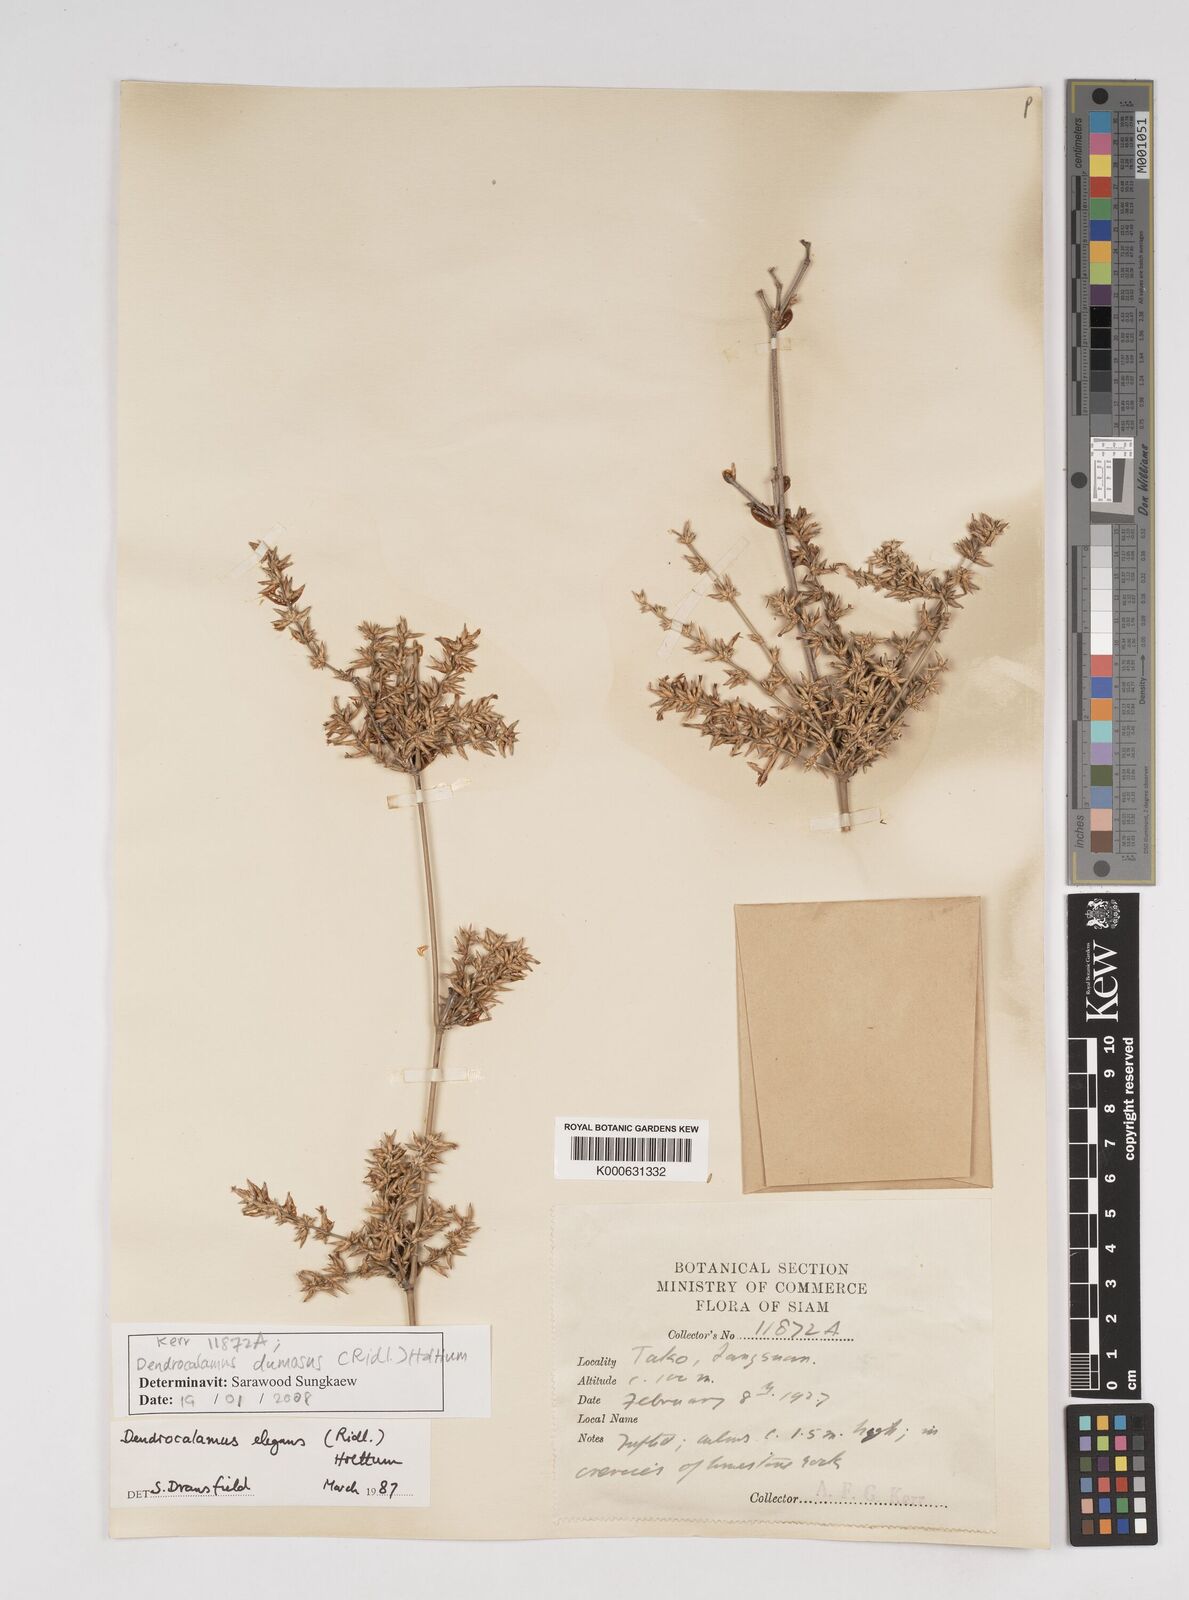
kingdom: Plantae
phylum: Tracheophyta
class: Liliopsida
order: Poales
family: Poaceae
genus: Dendrocalamus
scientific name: Dendrocalamus dumosus
